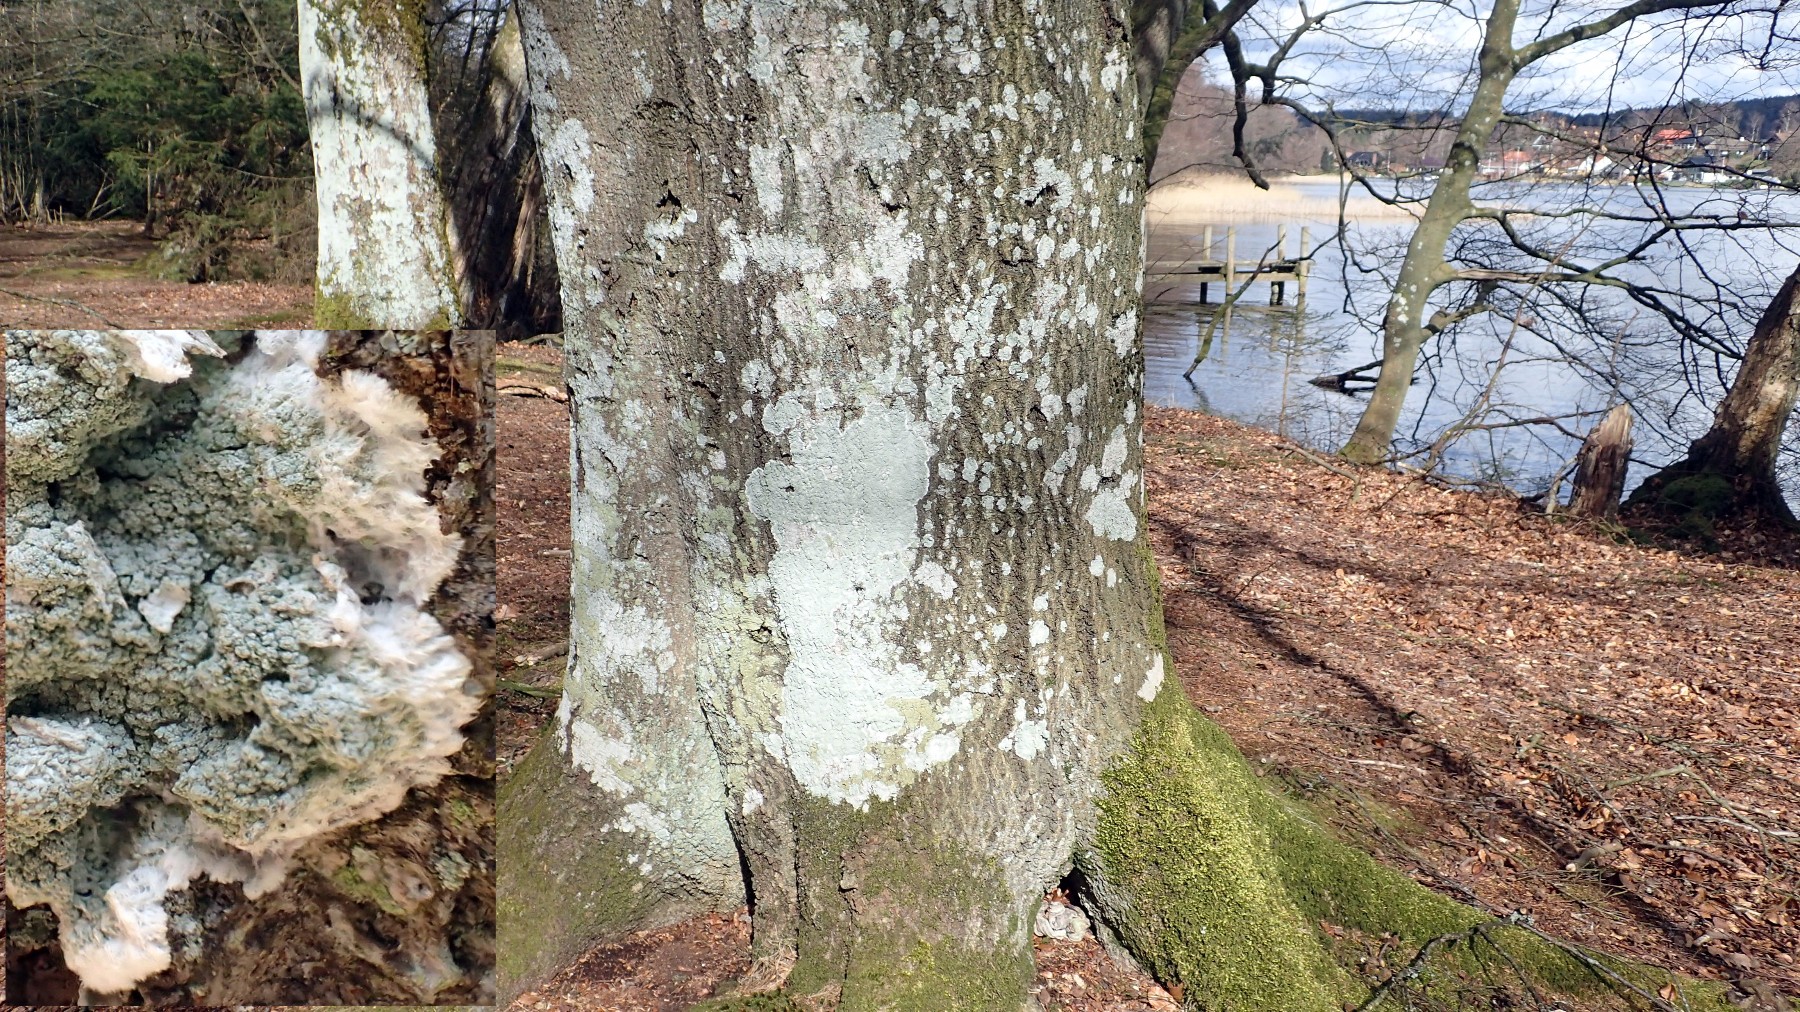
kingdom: Fungi
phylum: Ascomycota
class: Lecanoromycetes
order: Lecanorales
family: Haematommataceae
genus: Haematomma
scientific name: Haematomma ochroleucum
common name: gul trådkantlav
